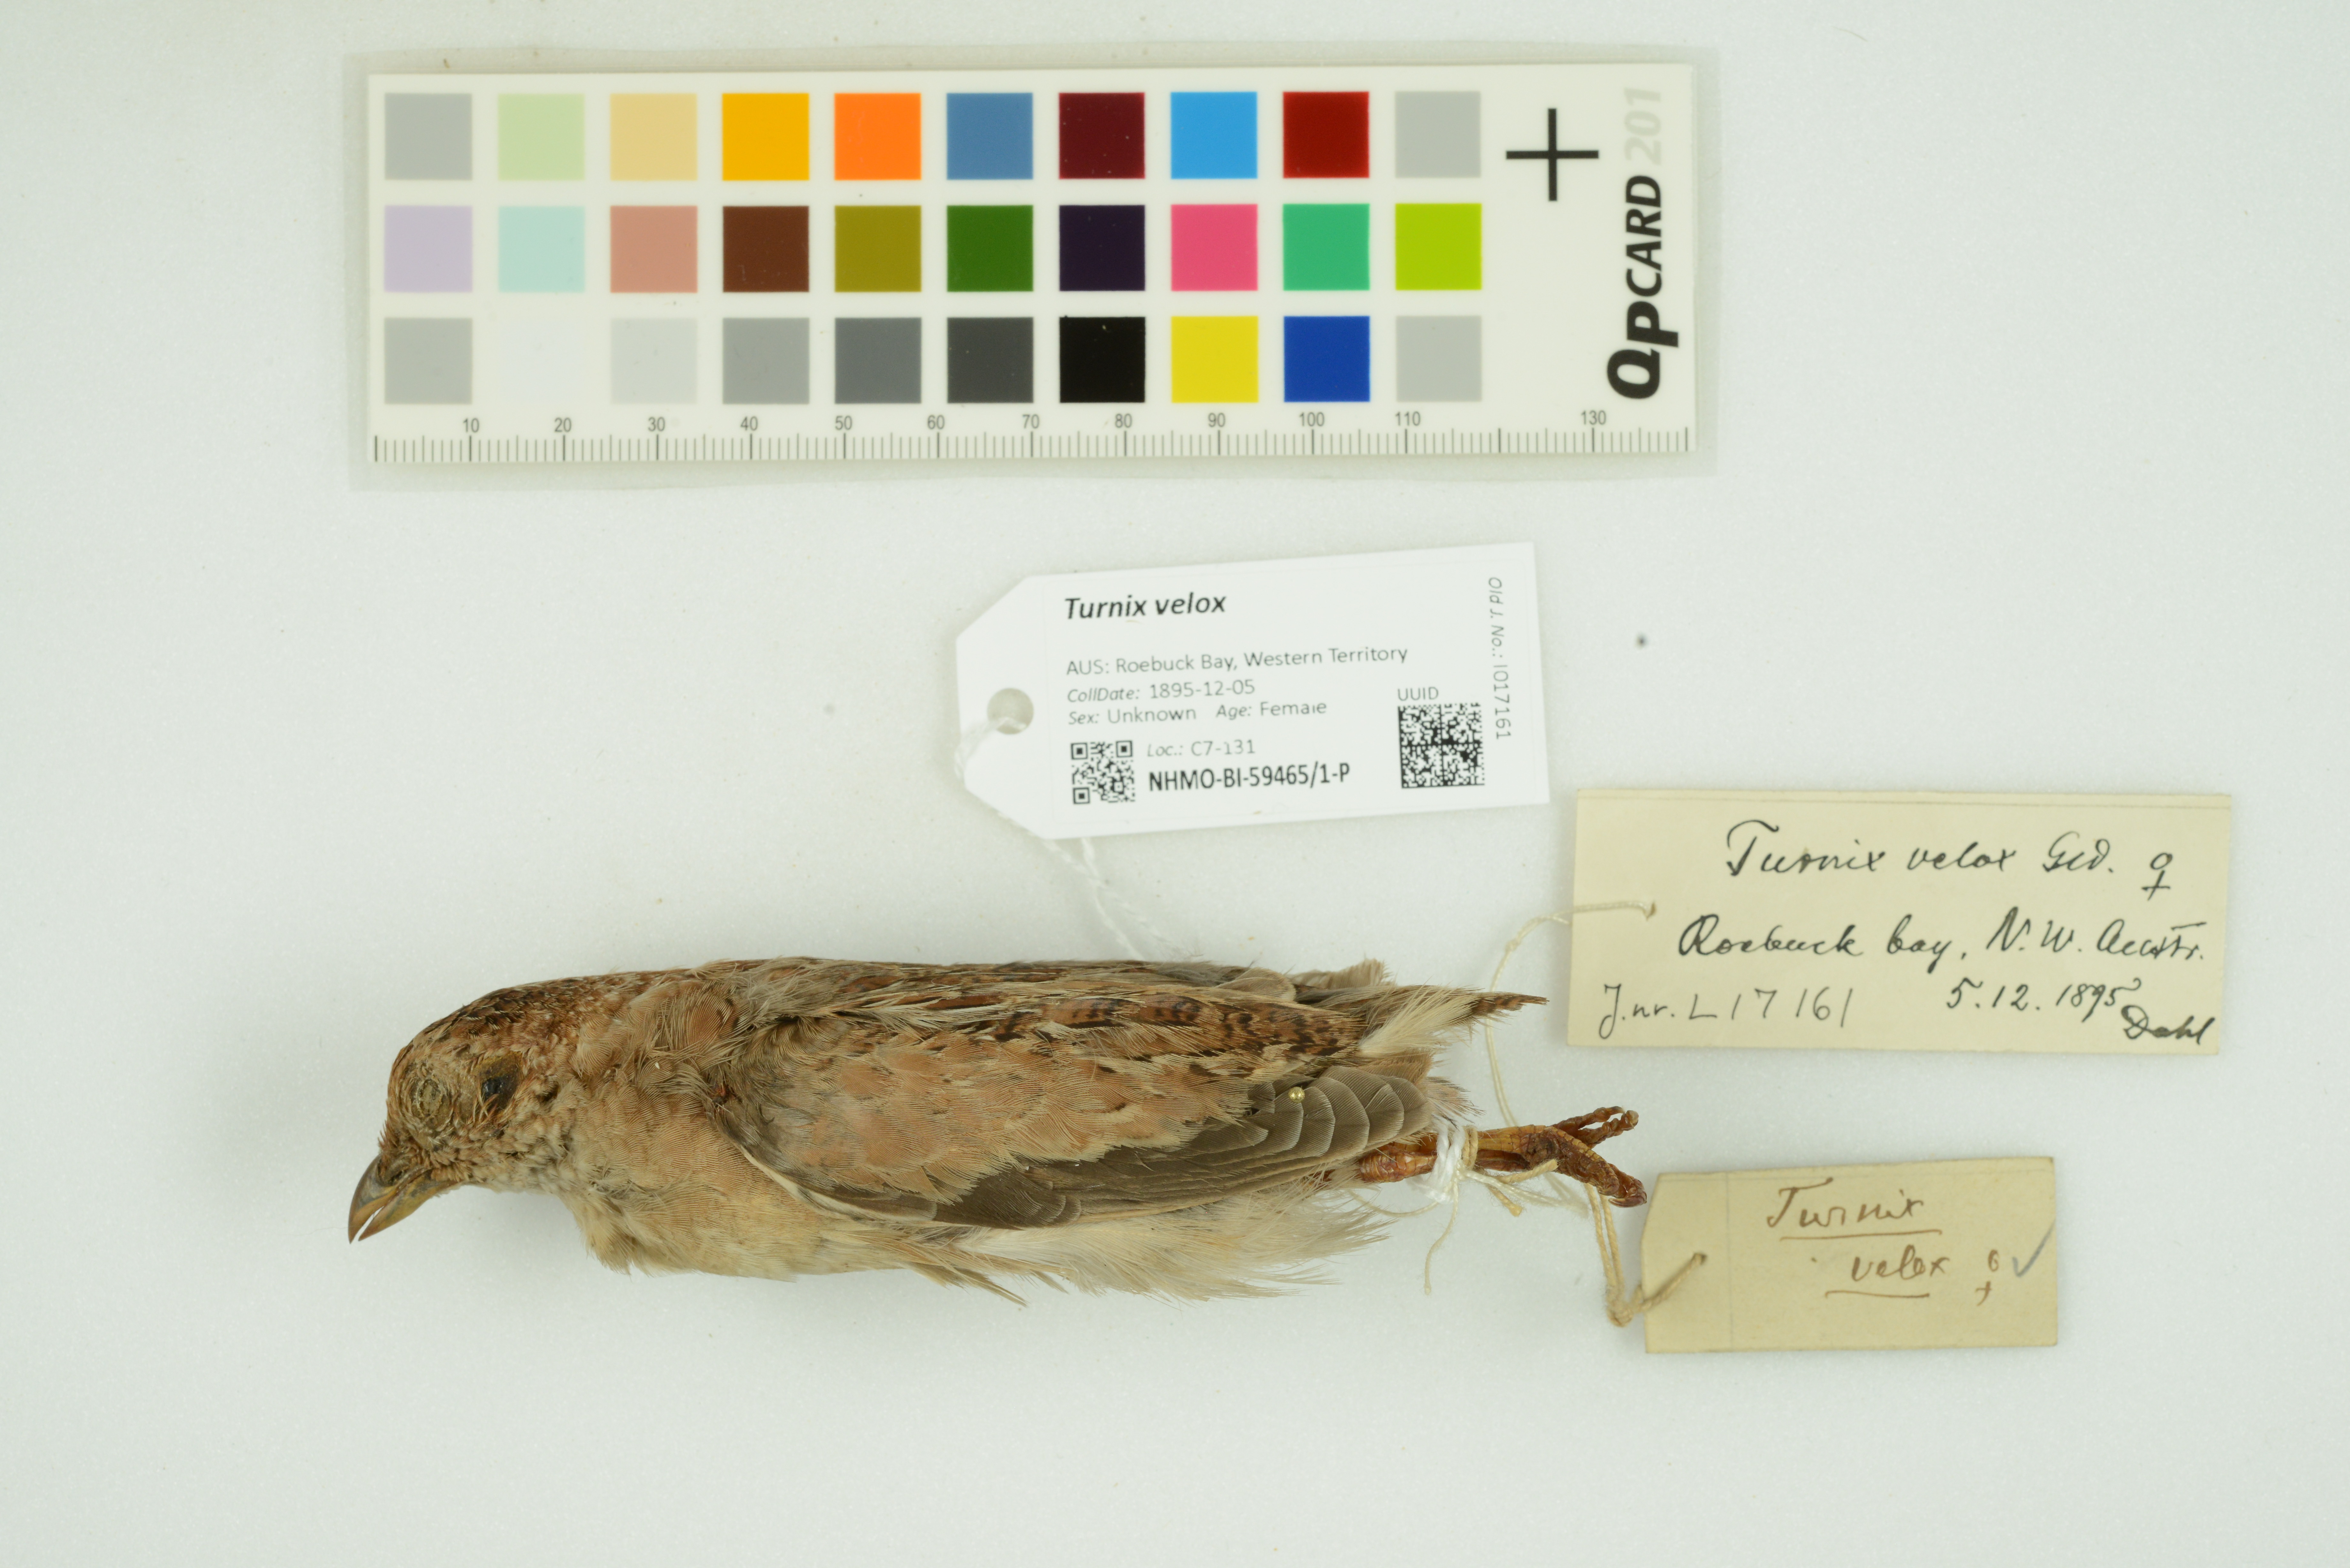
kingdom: Animalia
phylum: Chordata
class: Aves
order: Charadriiformes
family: Turnicidae
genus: Turnix
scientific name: Turnix velox
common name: Little buttonquail
